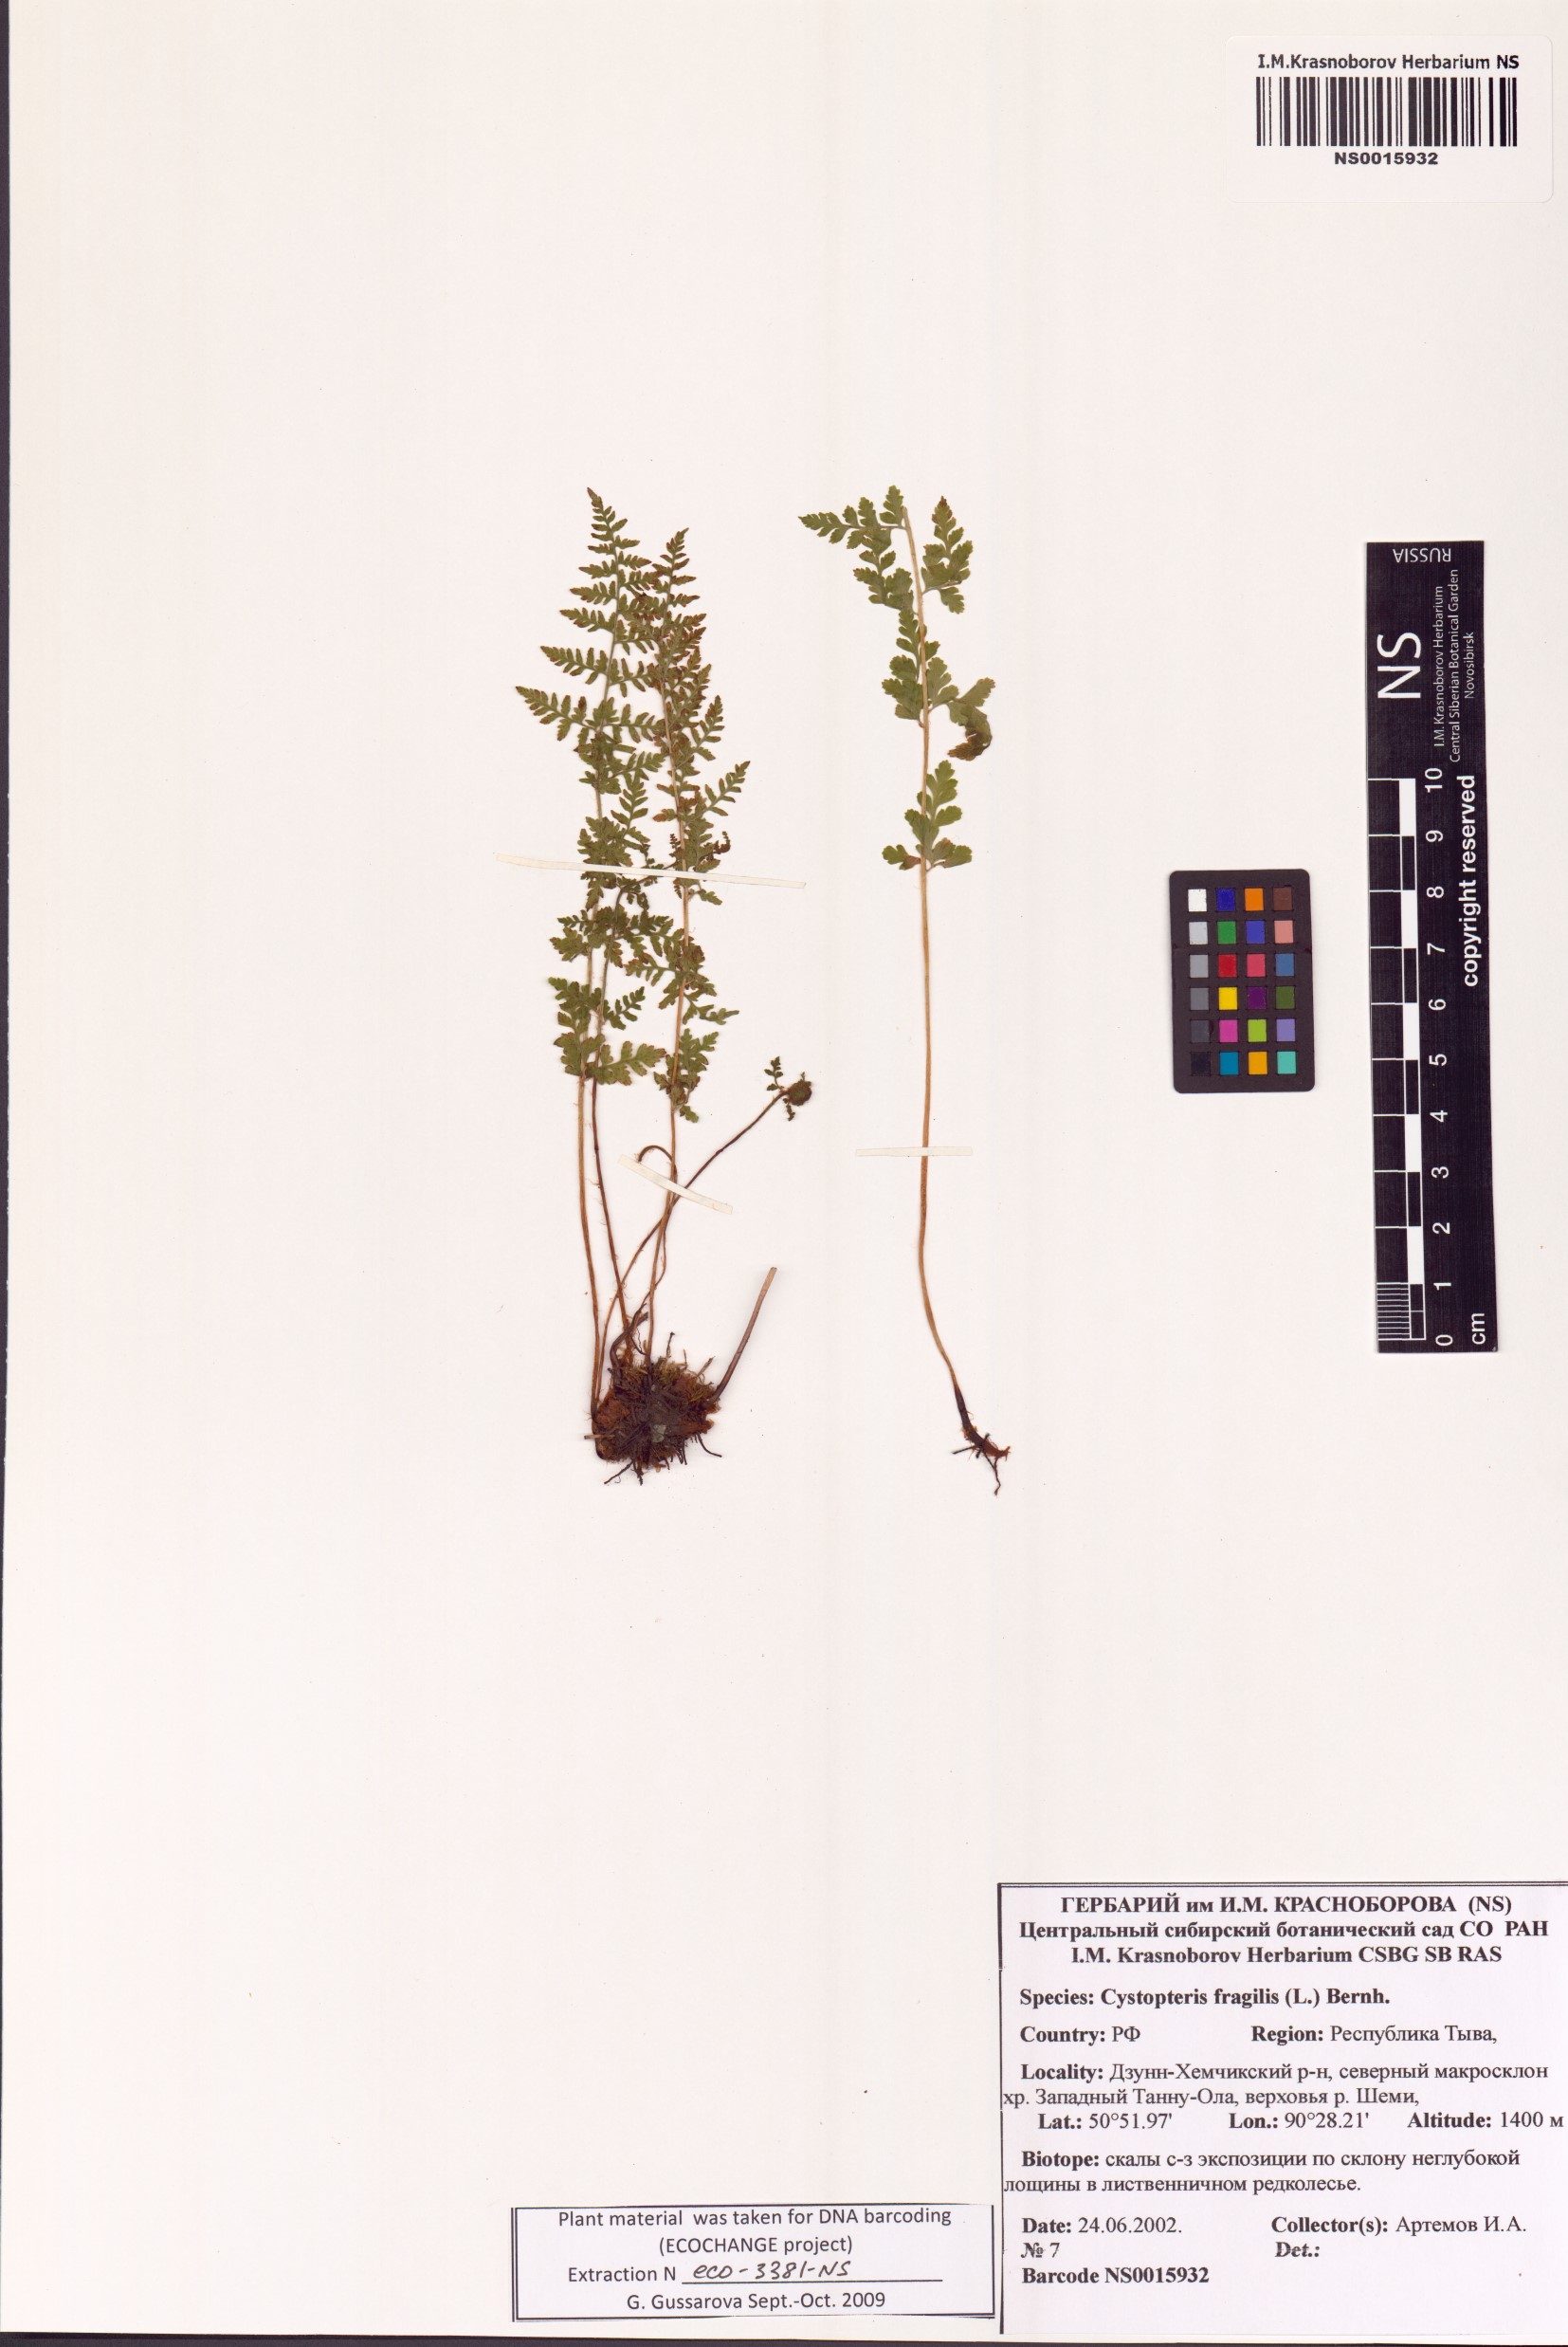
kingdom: Plantae
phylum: Tracheophyta
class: Polypodiopsida
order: Polypodiales
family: Cystopteridaceae
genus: Cystopteris
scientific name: Cystopteris fragilis
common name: Brittle bladder fern
